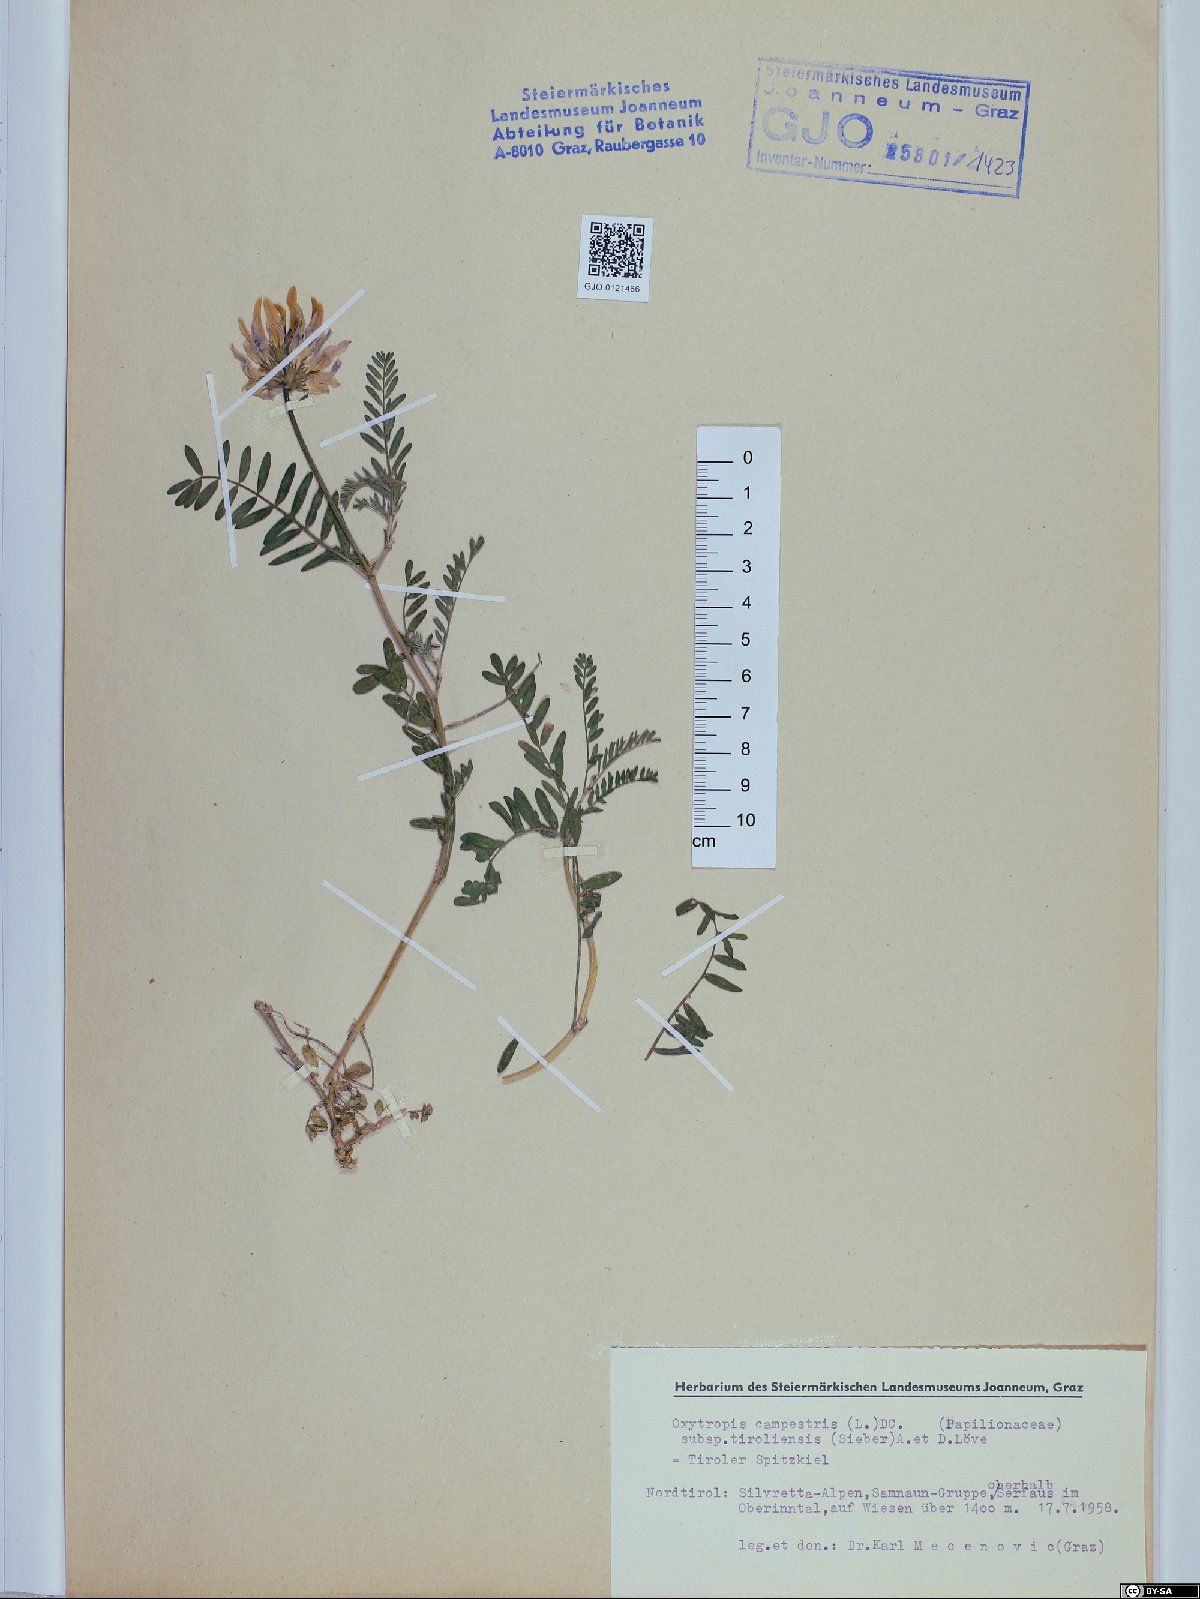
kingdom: Plantae
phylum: Tracheophyta
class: Magnoliopsida
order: Fabales
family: Fabaceae
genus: Oxytropis
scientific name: Oxytropis campestris
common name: Field locoweed
